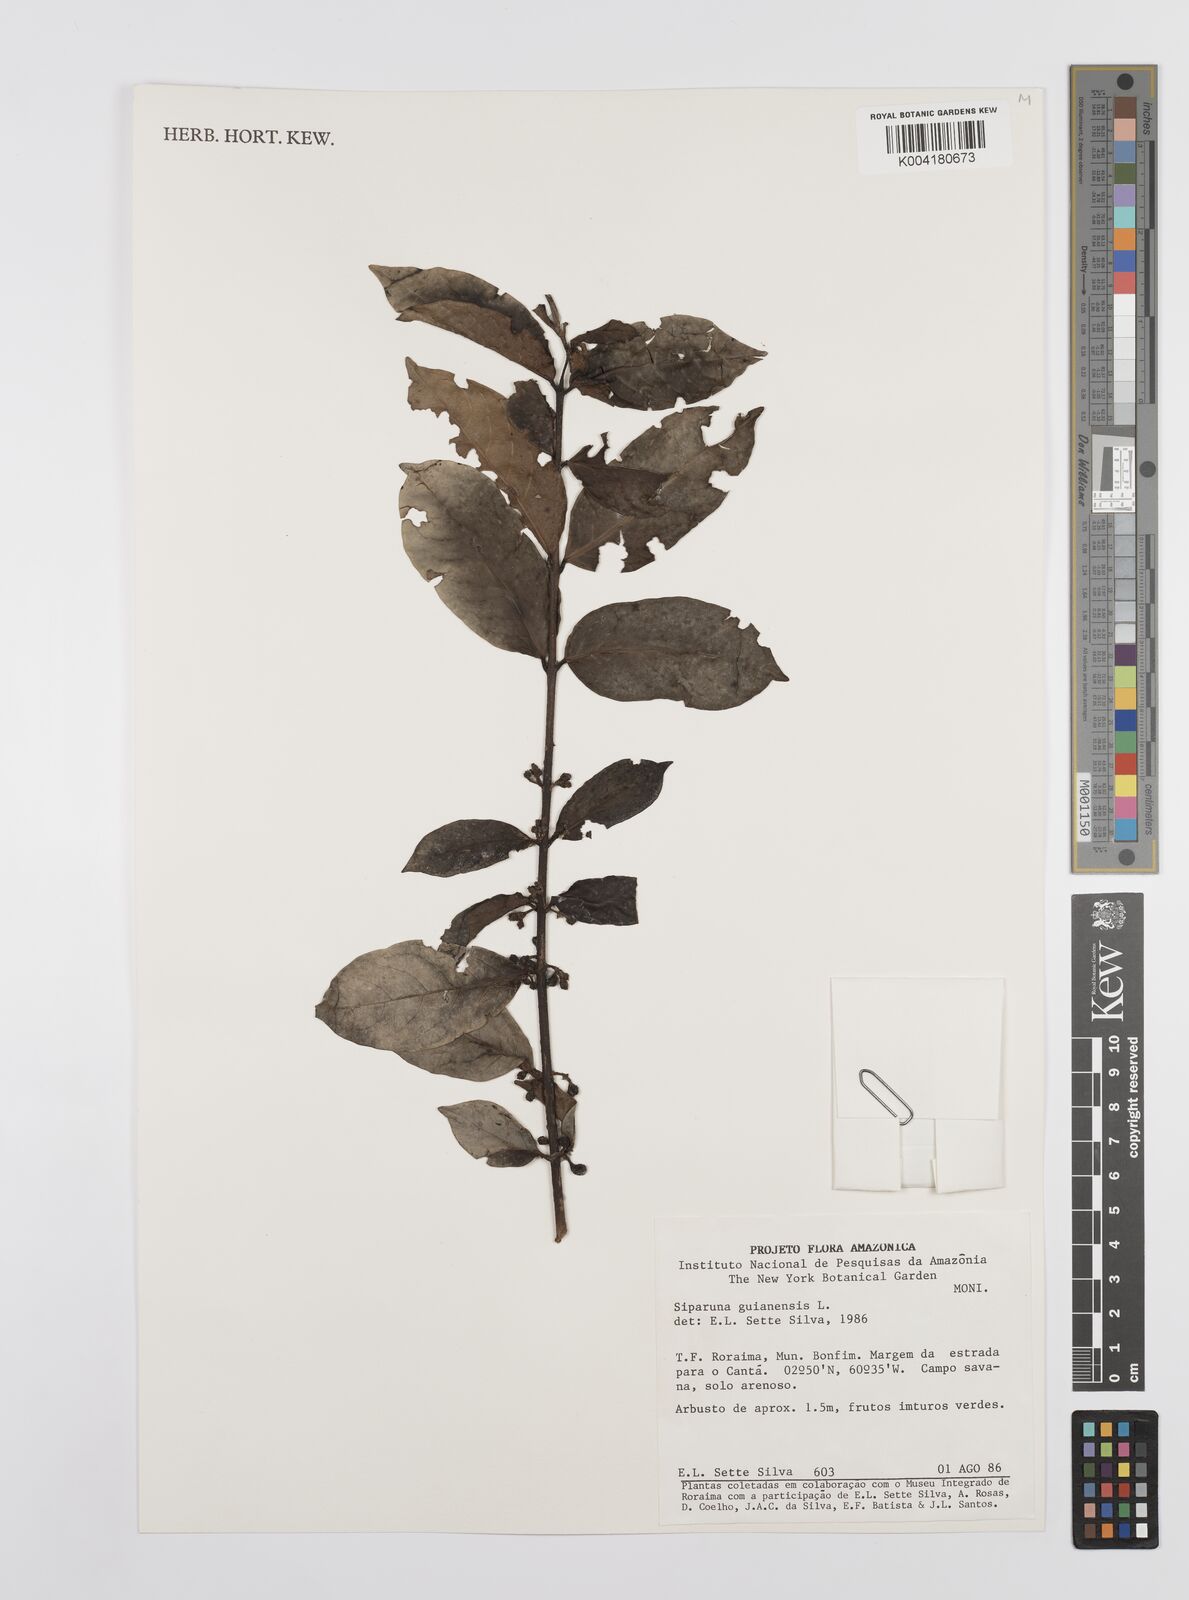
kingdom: Plantae
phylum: Tracheophyta
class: Magnoliopsida
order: Laurales
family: Siparunaceae
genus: Siparuna
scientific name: Siparuna guianensis
